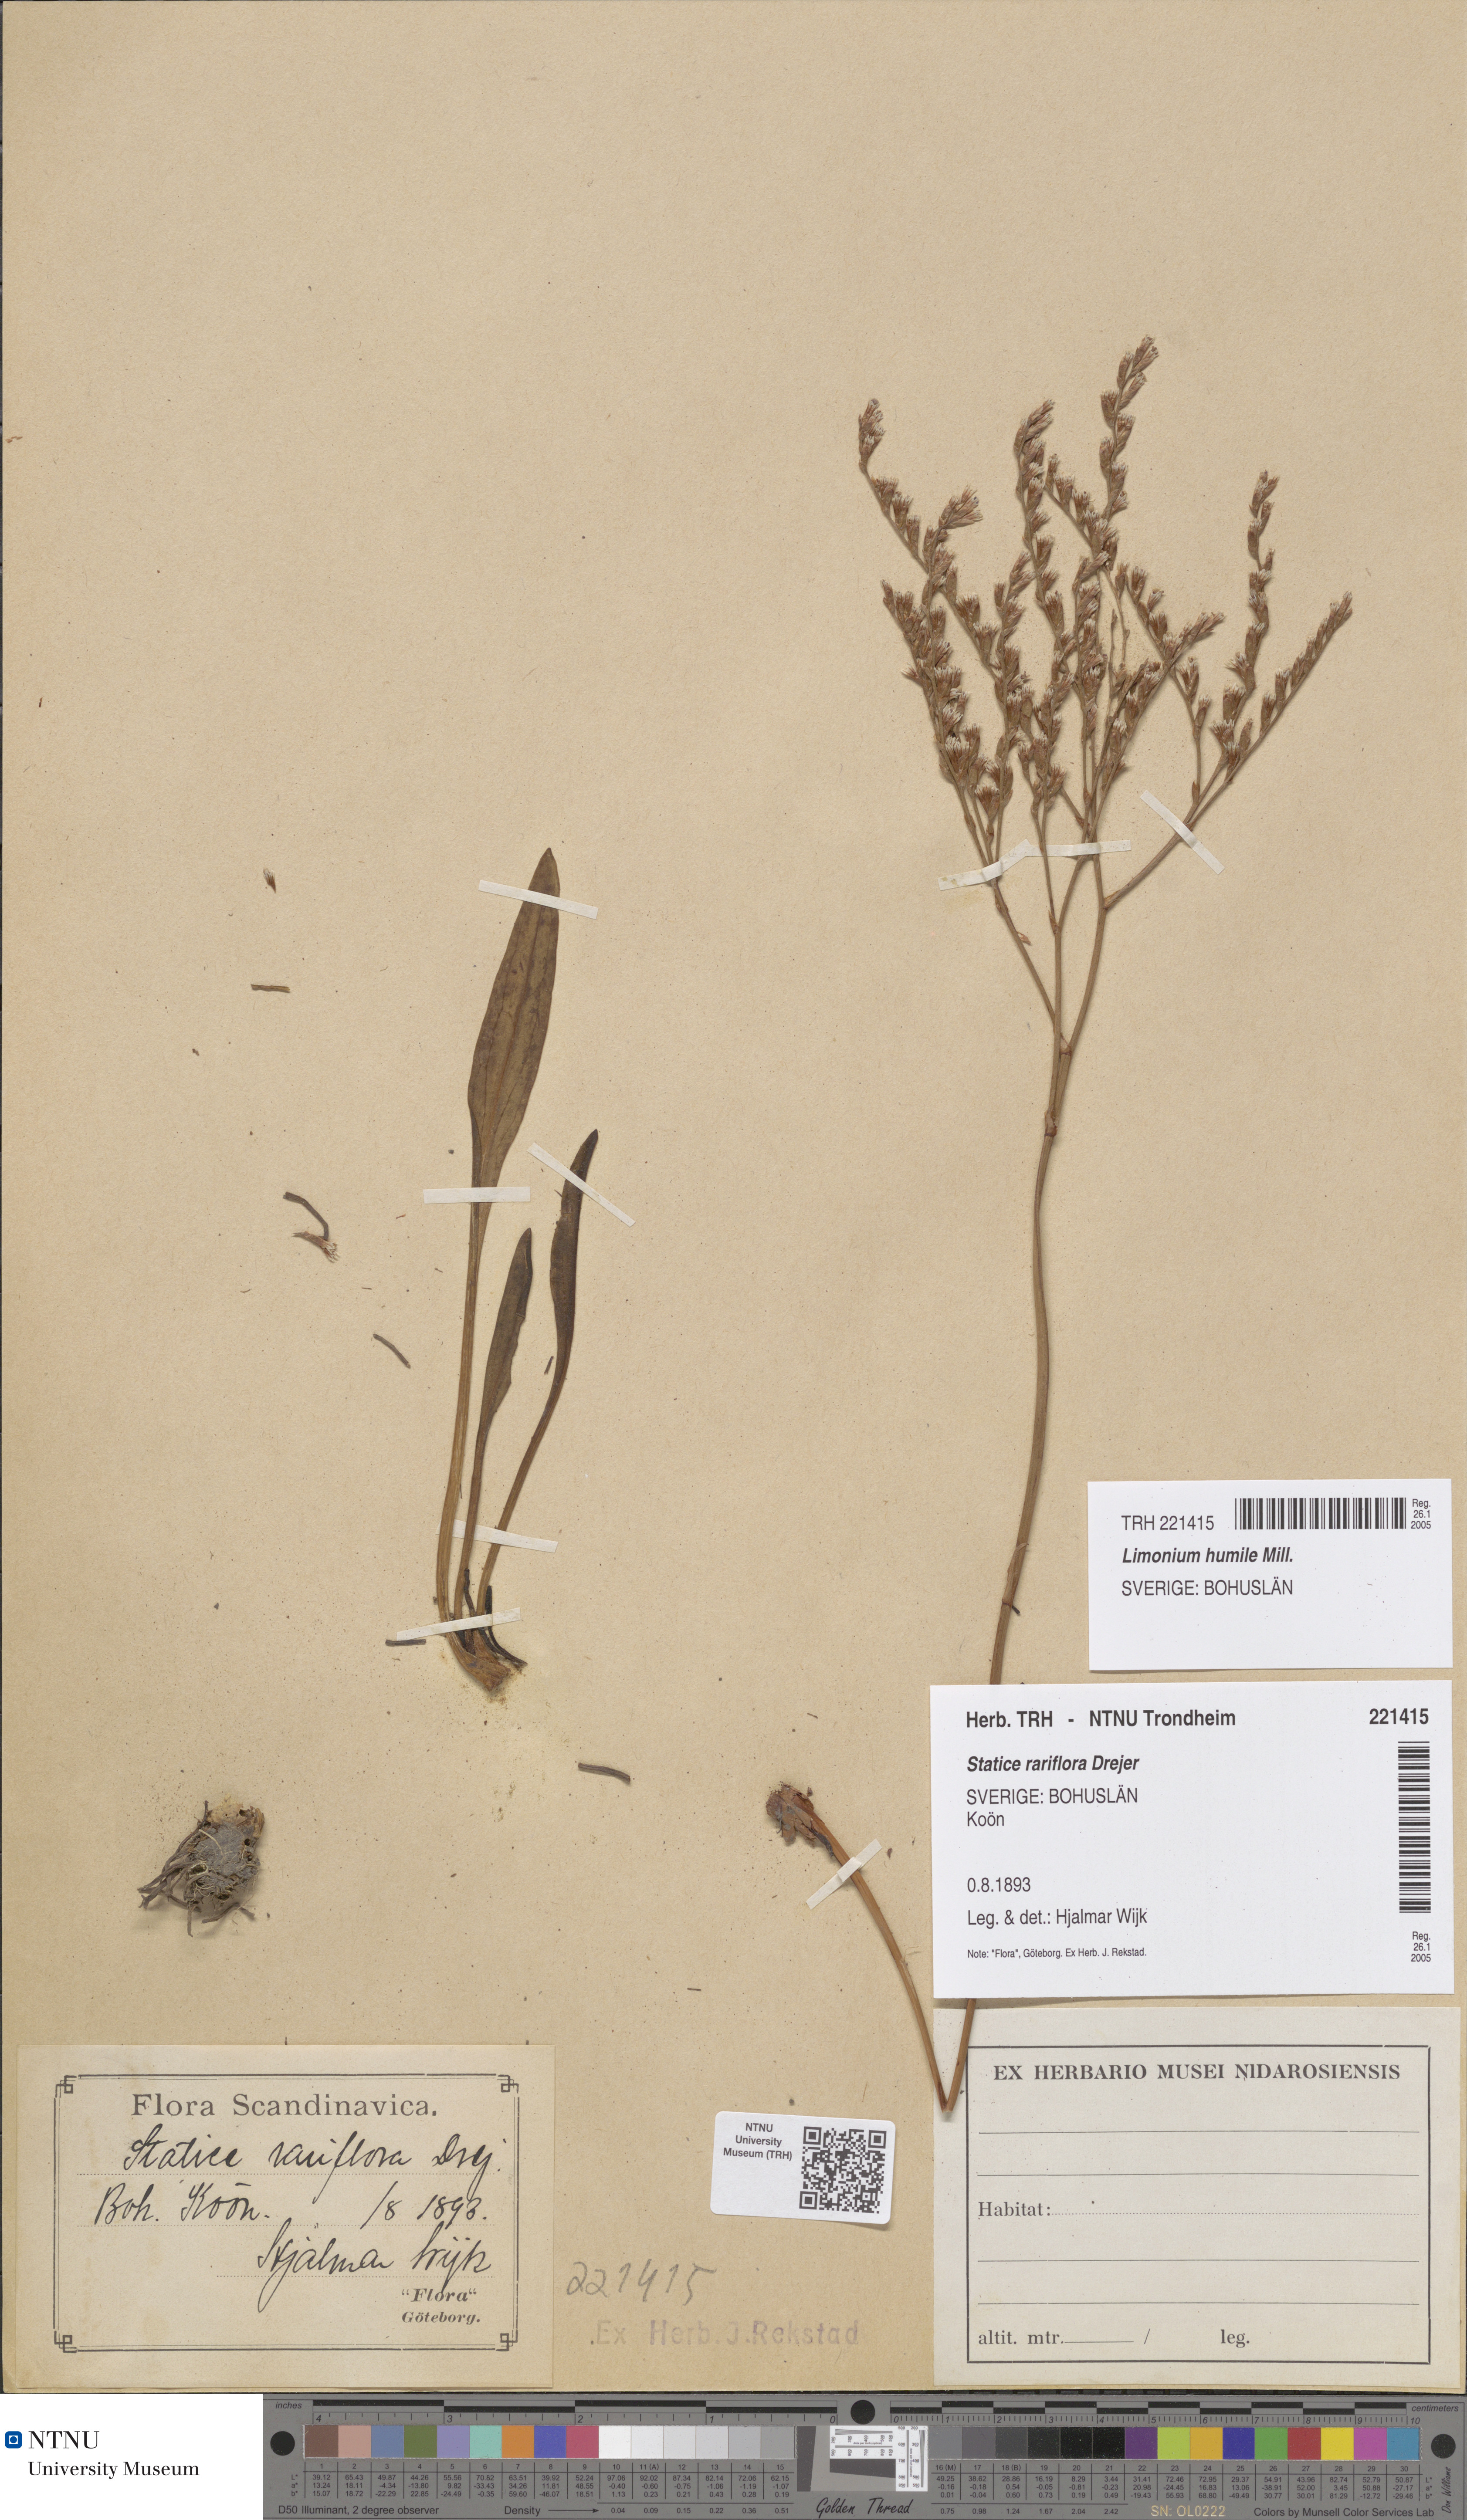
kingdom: Plantae
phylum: Tracheophyta
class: Magnoliopsida
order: Caryophyllales
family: Plumbaginaceae
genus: Limonium
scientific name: Limonium humile
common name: Lax-flowered sea-lavender
